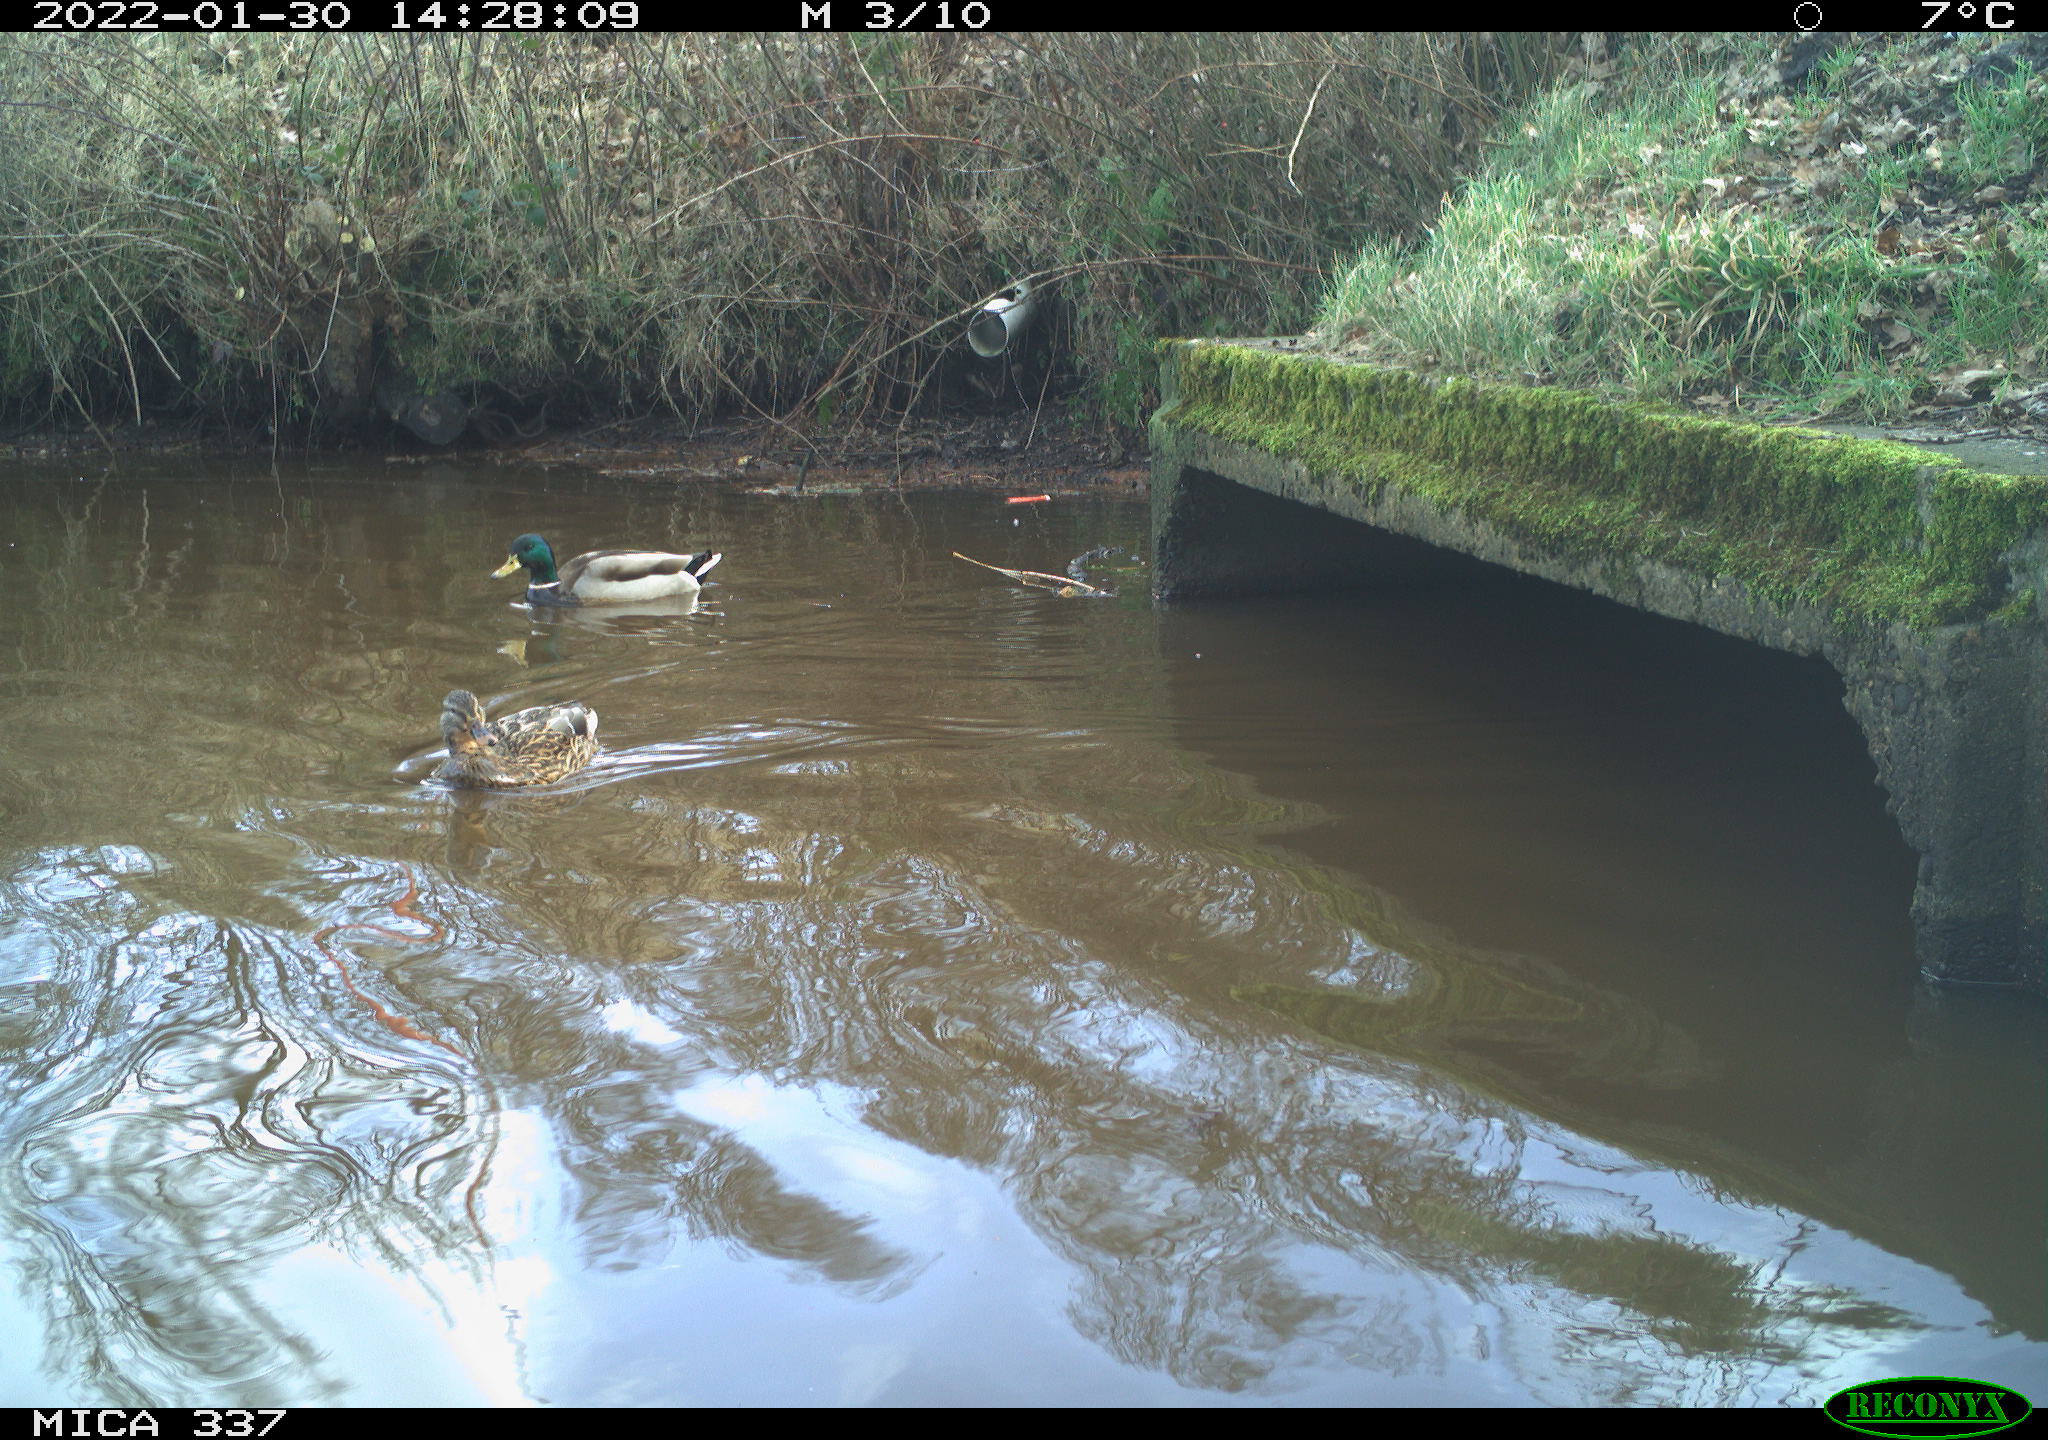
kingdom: Animalia
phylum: Chordata
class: Aves
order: Anseriformes
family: Anatidae
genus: Anas
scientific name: Anas platyrhynchos
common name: Mallard
